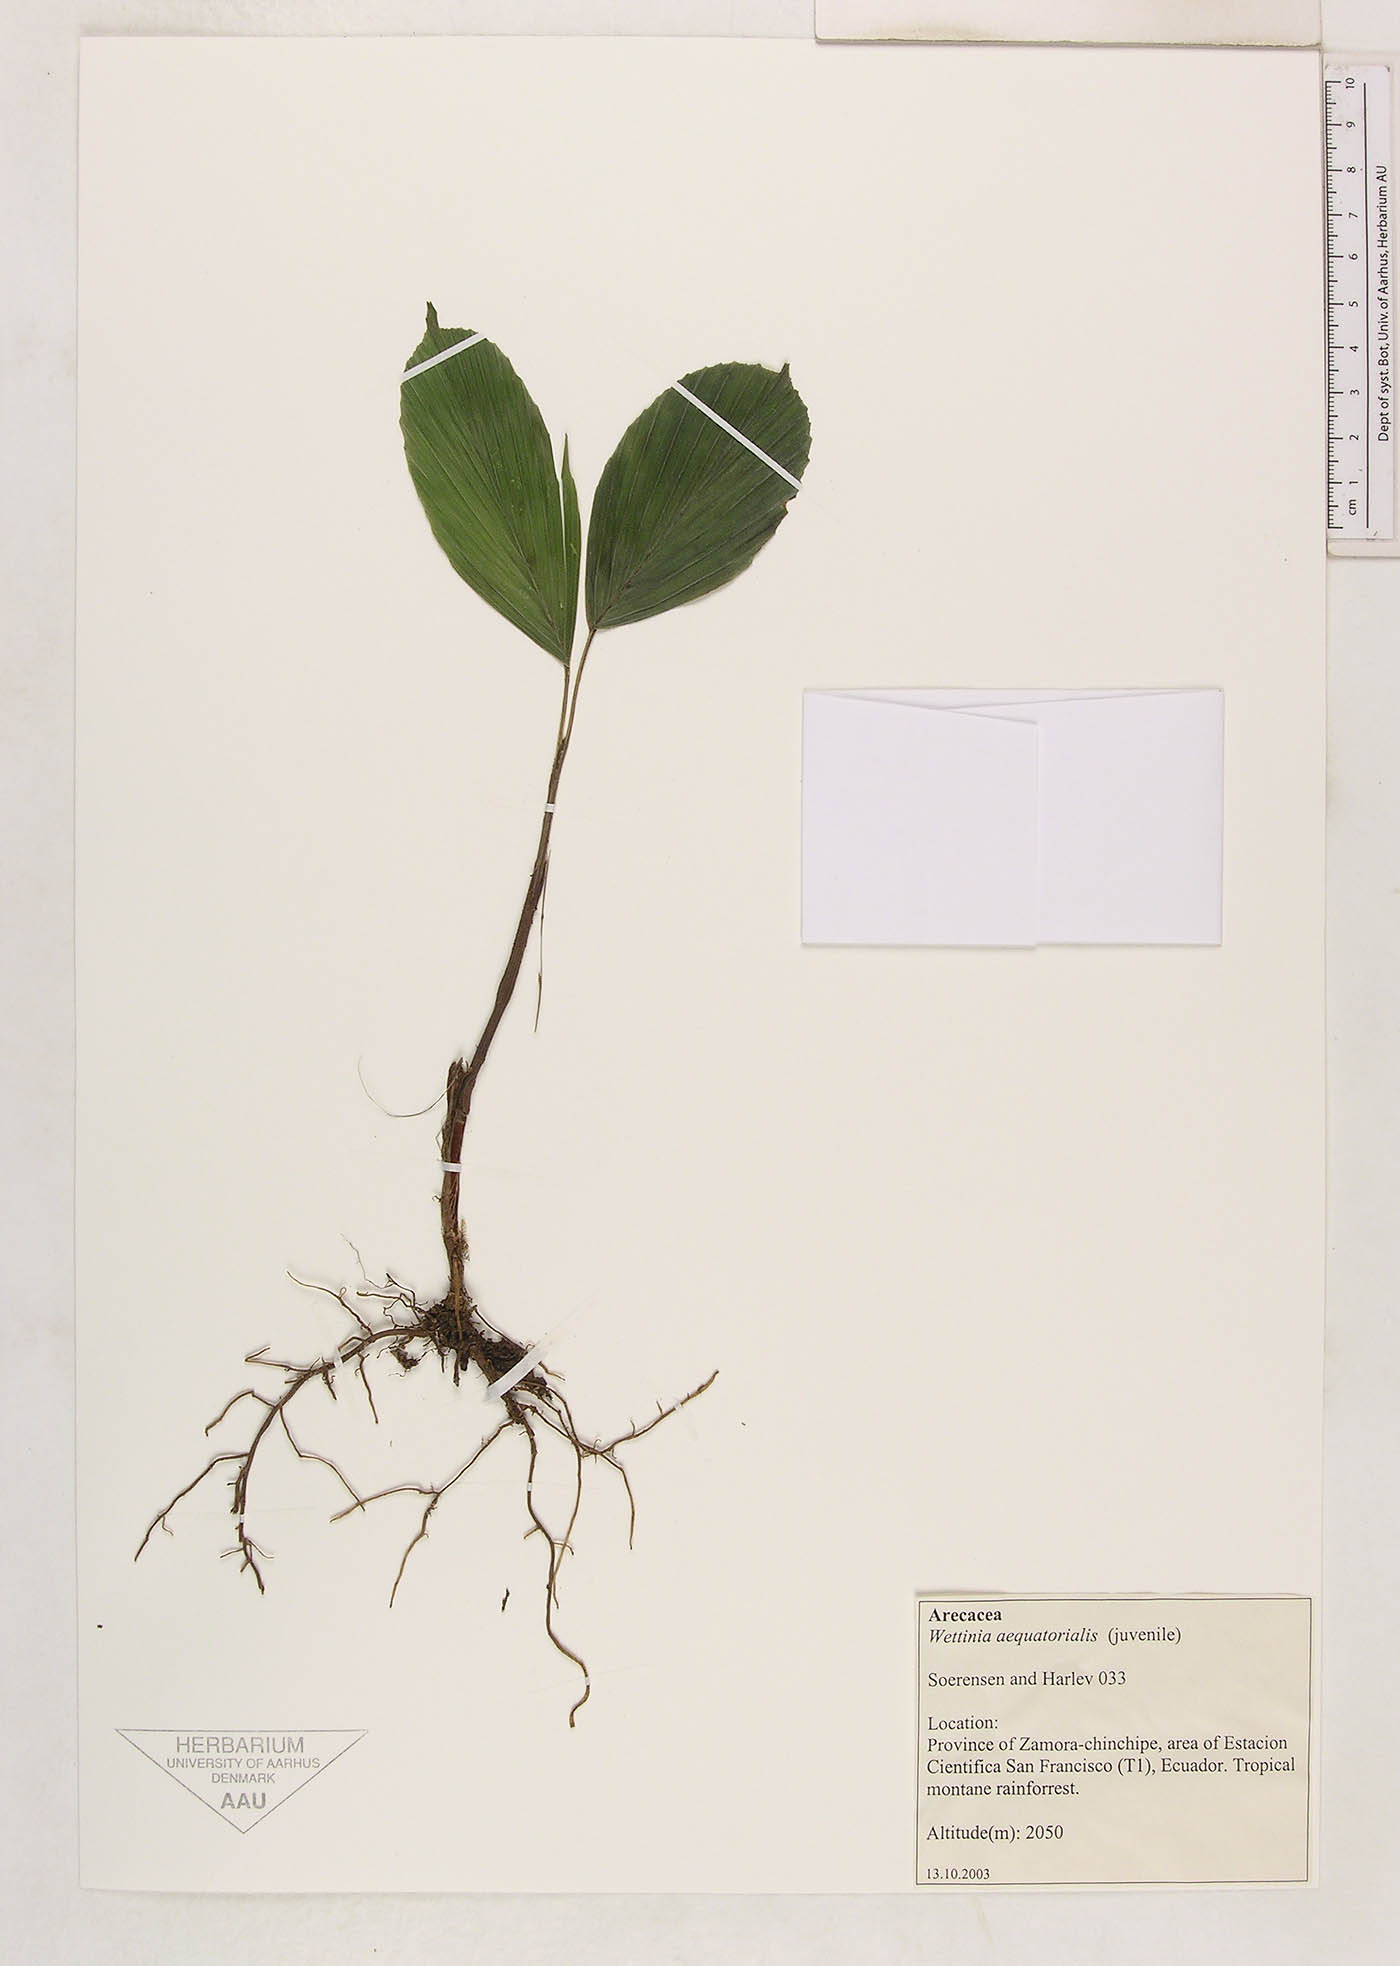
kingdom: Plantae
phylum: Tracheophyta
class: Liliopsida
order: Arecales
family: Arecaceae
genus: Wettinia
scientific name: Wettinia aequatorialis
